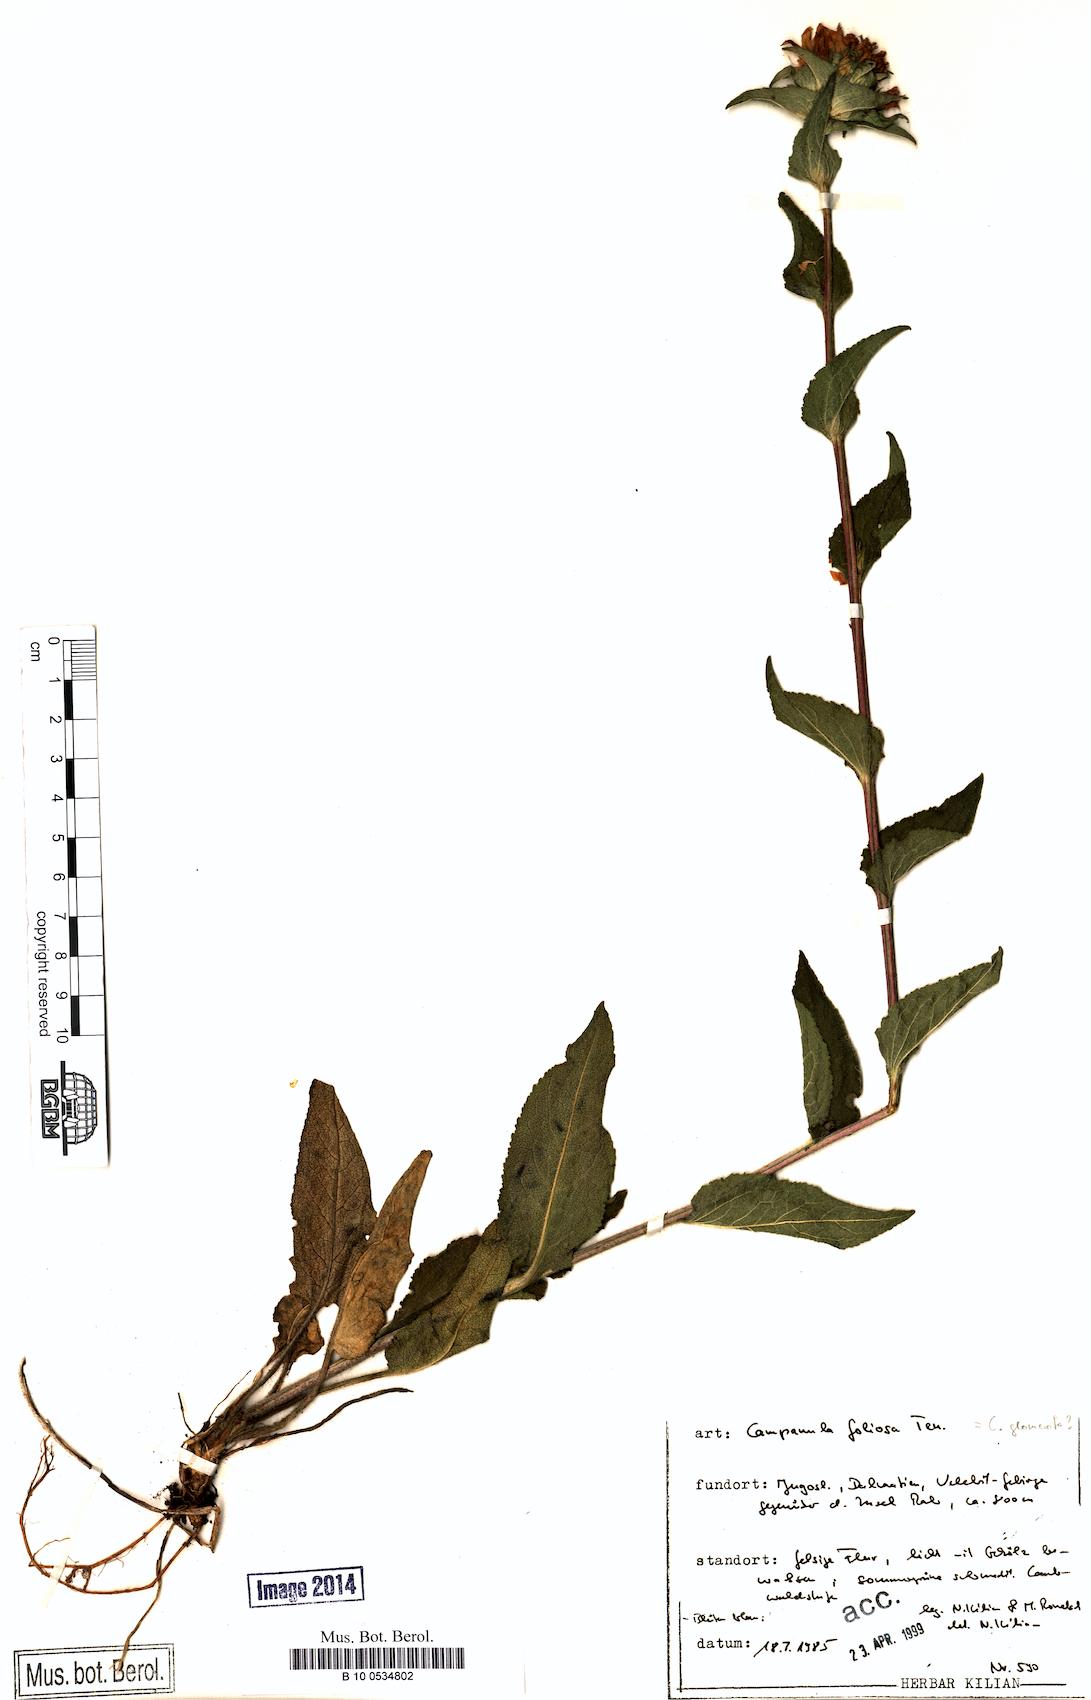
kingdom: Plantae
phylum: Tracheophyta
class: Magnoliopsida
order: Asterales
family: Campanulaceae
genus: Campanula
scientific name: Campanula foliosa
